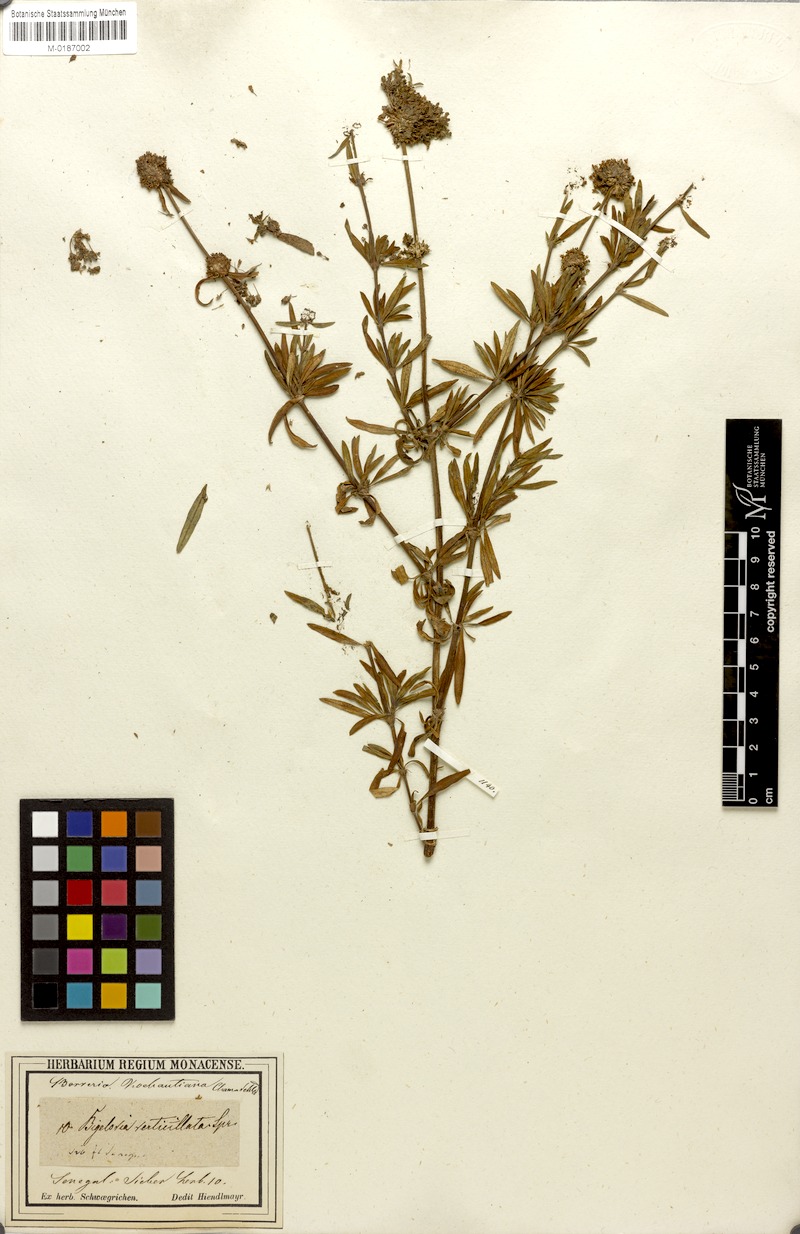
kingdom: Plantae
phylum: Tracheophyta
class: Magnoliopsida
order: Gentianales
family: Rubiaceae
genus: Spermacoce
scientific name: Spermacoce verticillata
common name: Shrubby false buttonweed
